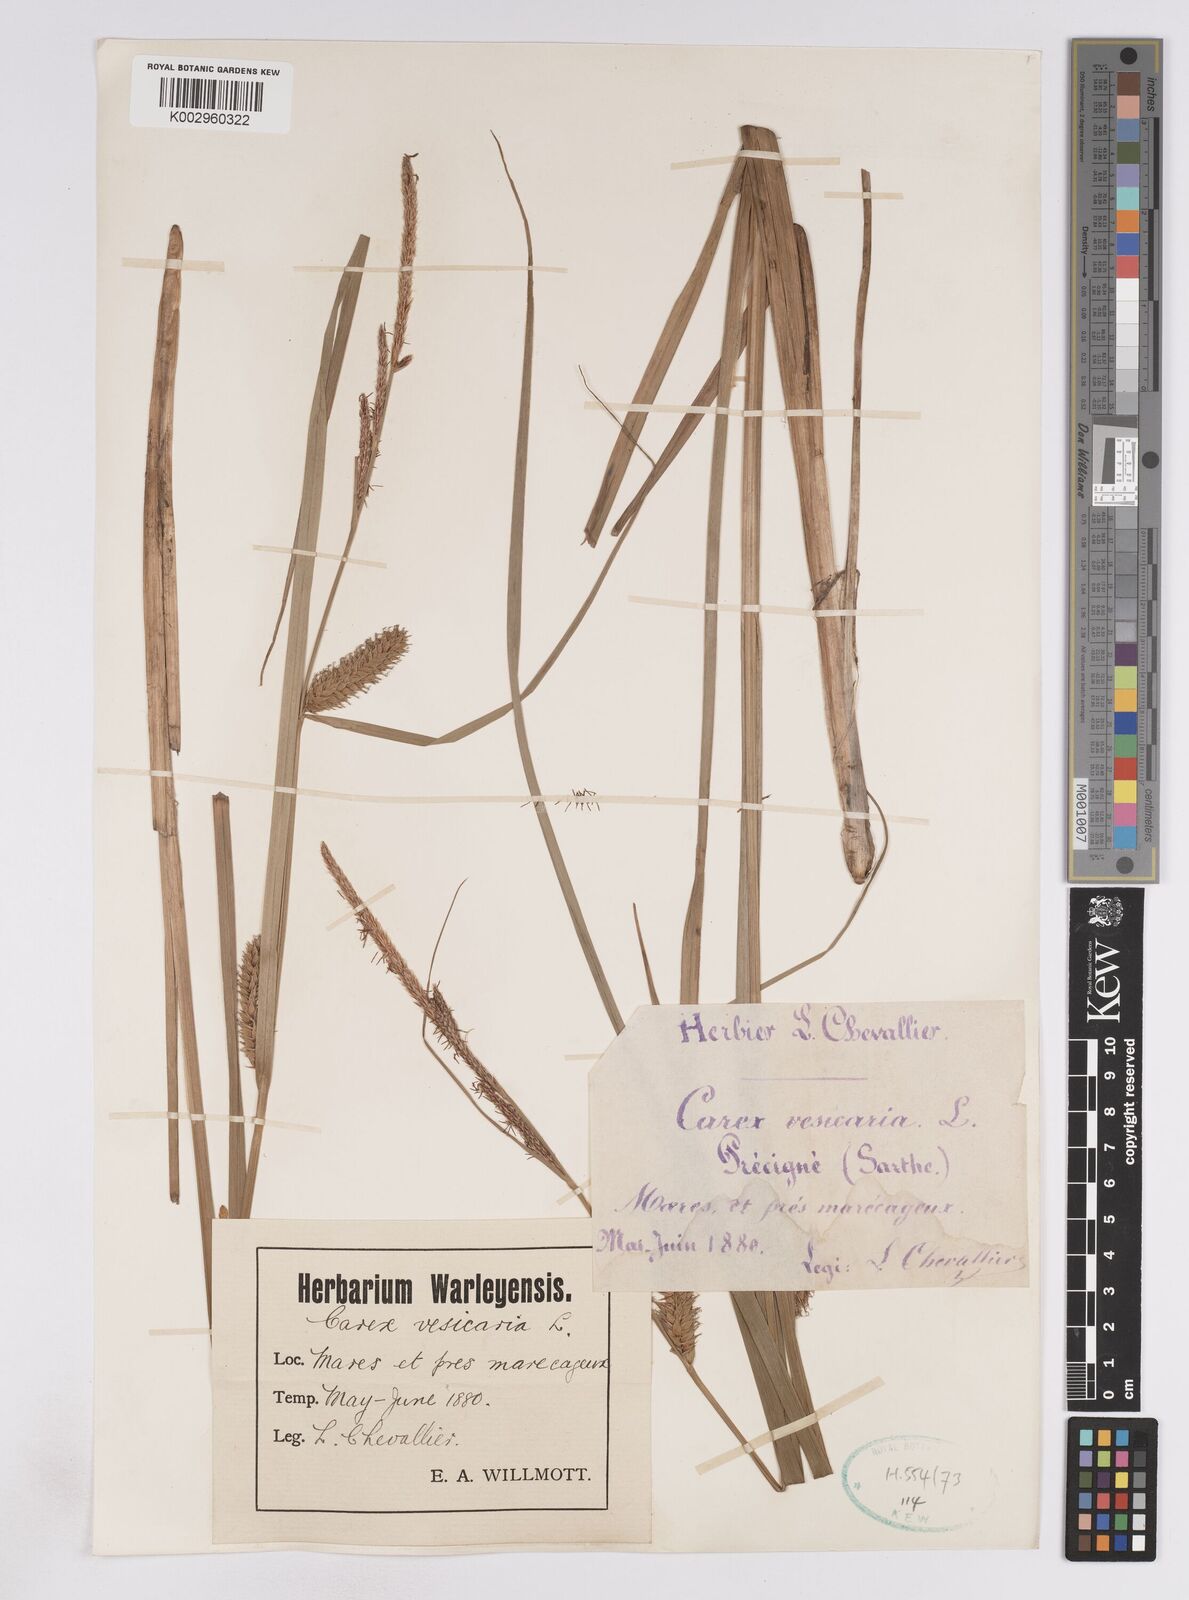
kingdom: Plantae
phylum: Tracheophyta
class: Liliopsida
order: Poales
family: Cyperaceae
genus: Carex
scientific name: Carex vesicaria
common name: Bladder-sedge
